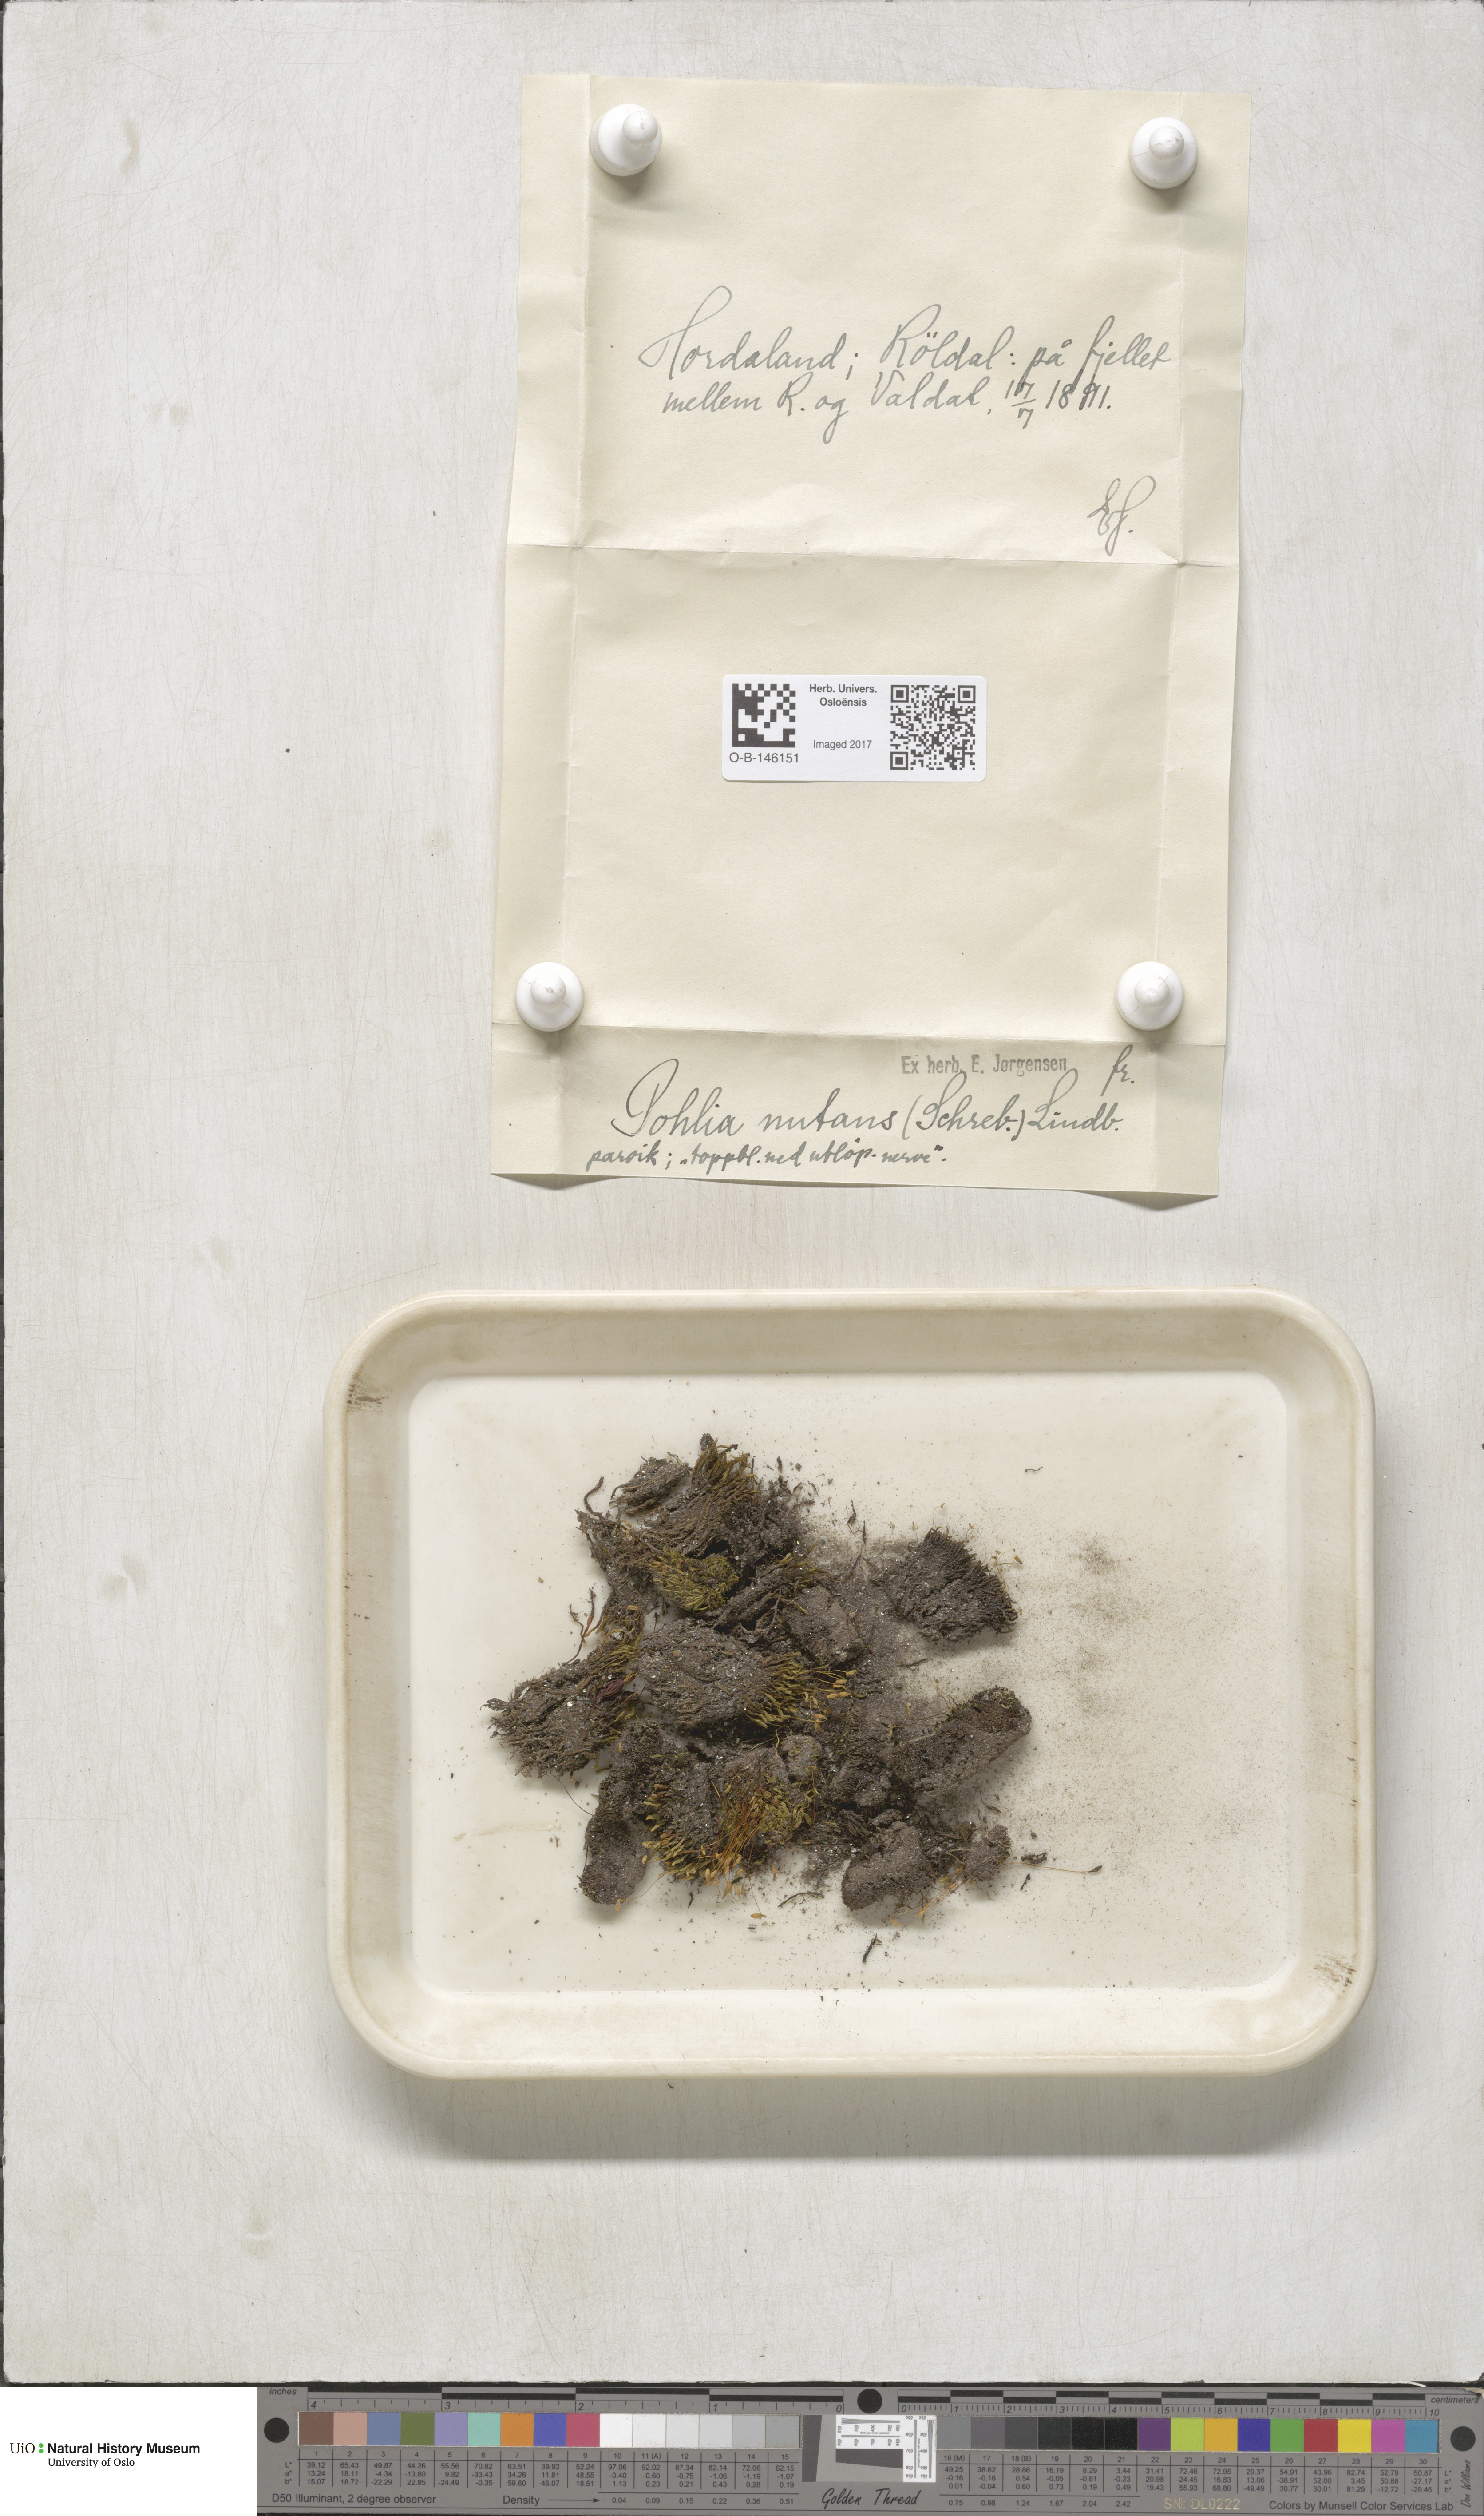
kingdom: Plantae
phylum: Bryophyta
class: Bryopsida
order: Bryales
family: Mniaceae
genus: Pohlia
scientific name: Pohlia nutans
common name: Nodding thread-moss
